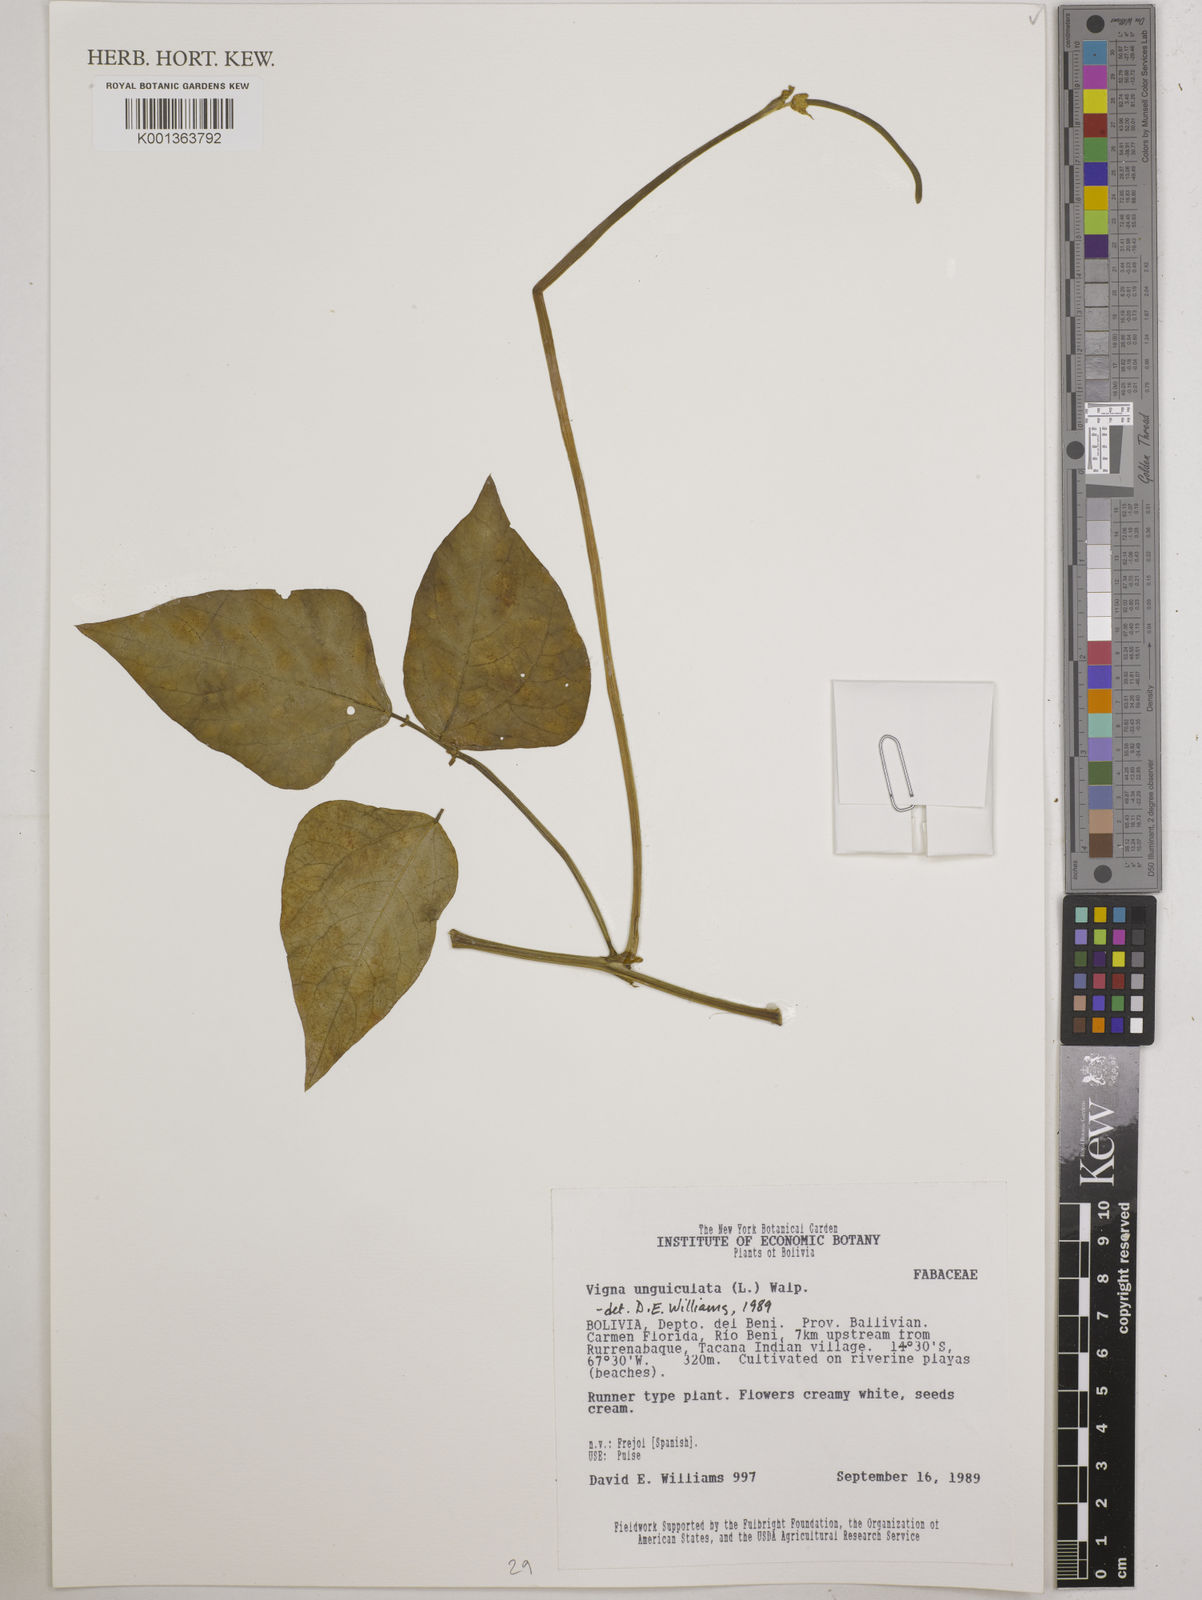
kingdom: Plantae
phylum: Tracheophyta
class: Magnoliopsida
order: Fabales
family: Fabaceae
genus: Vigna
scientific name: Vigna unguiculata
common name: Cowpea
